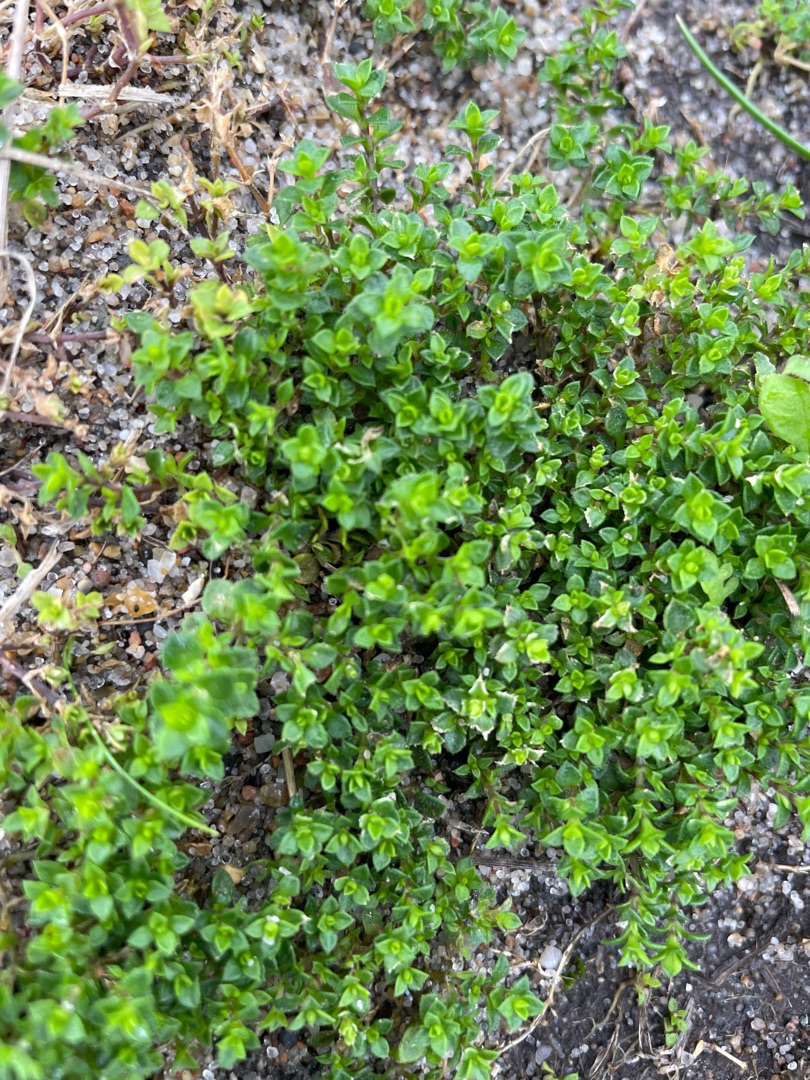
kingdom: Plantae
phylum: Tracheophyta
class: Magnoliopsida
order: Caryophyllales
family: Caryophyllaceae
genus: Arenaria
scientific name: Arenaria serpyllifolia
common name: Almindelig markarve
